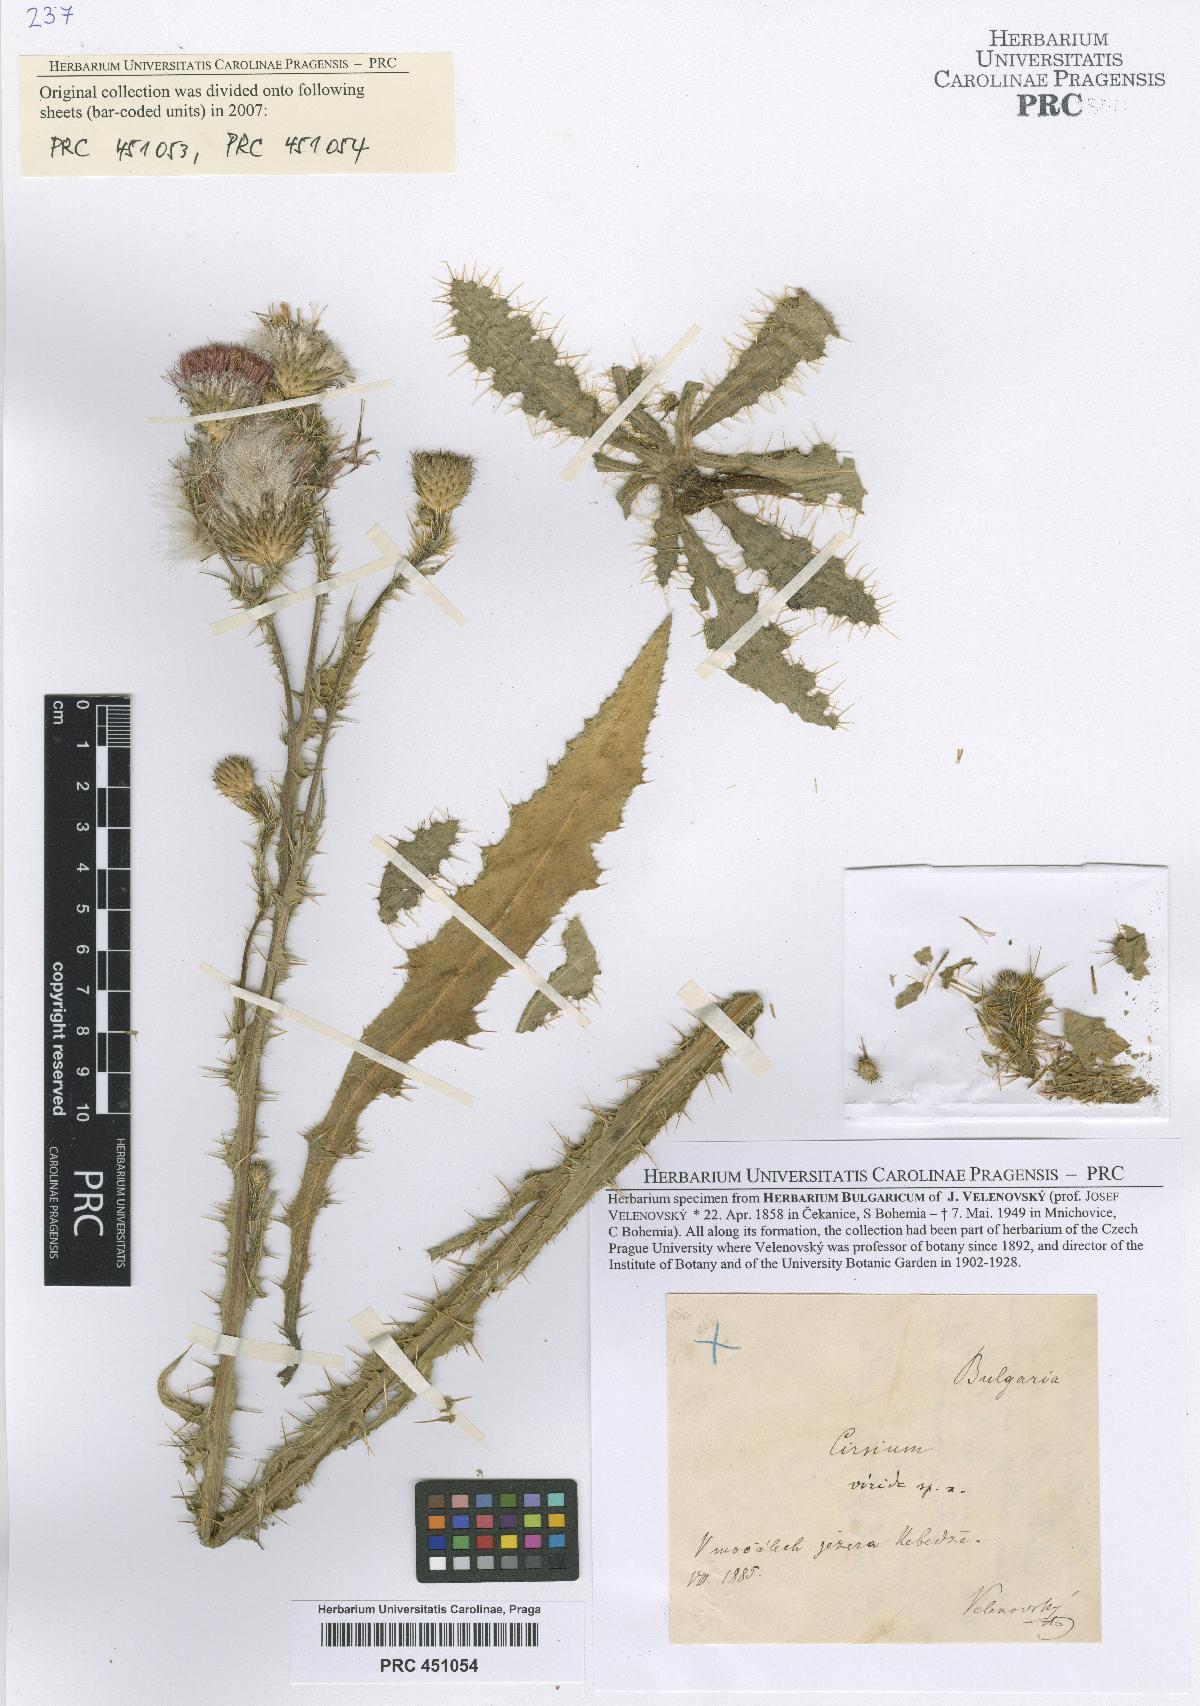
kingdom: Plantae
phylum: Tracheophyta
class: Magnoliopsida
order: Asterales
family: Asteraceae
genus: Cirsium
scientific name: Cirsium alatum
